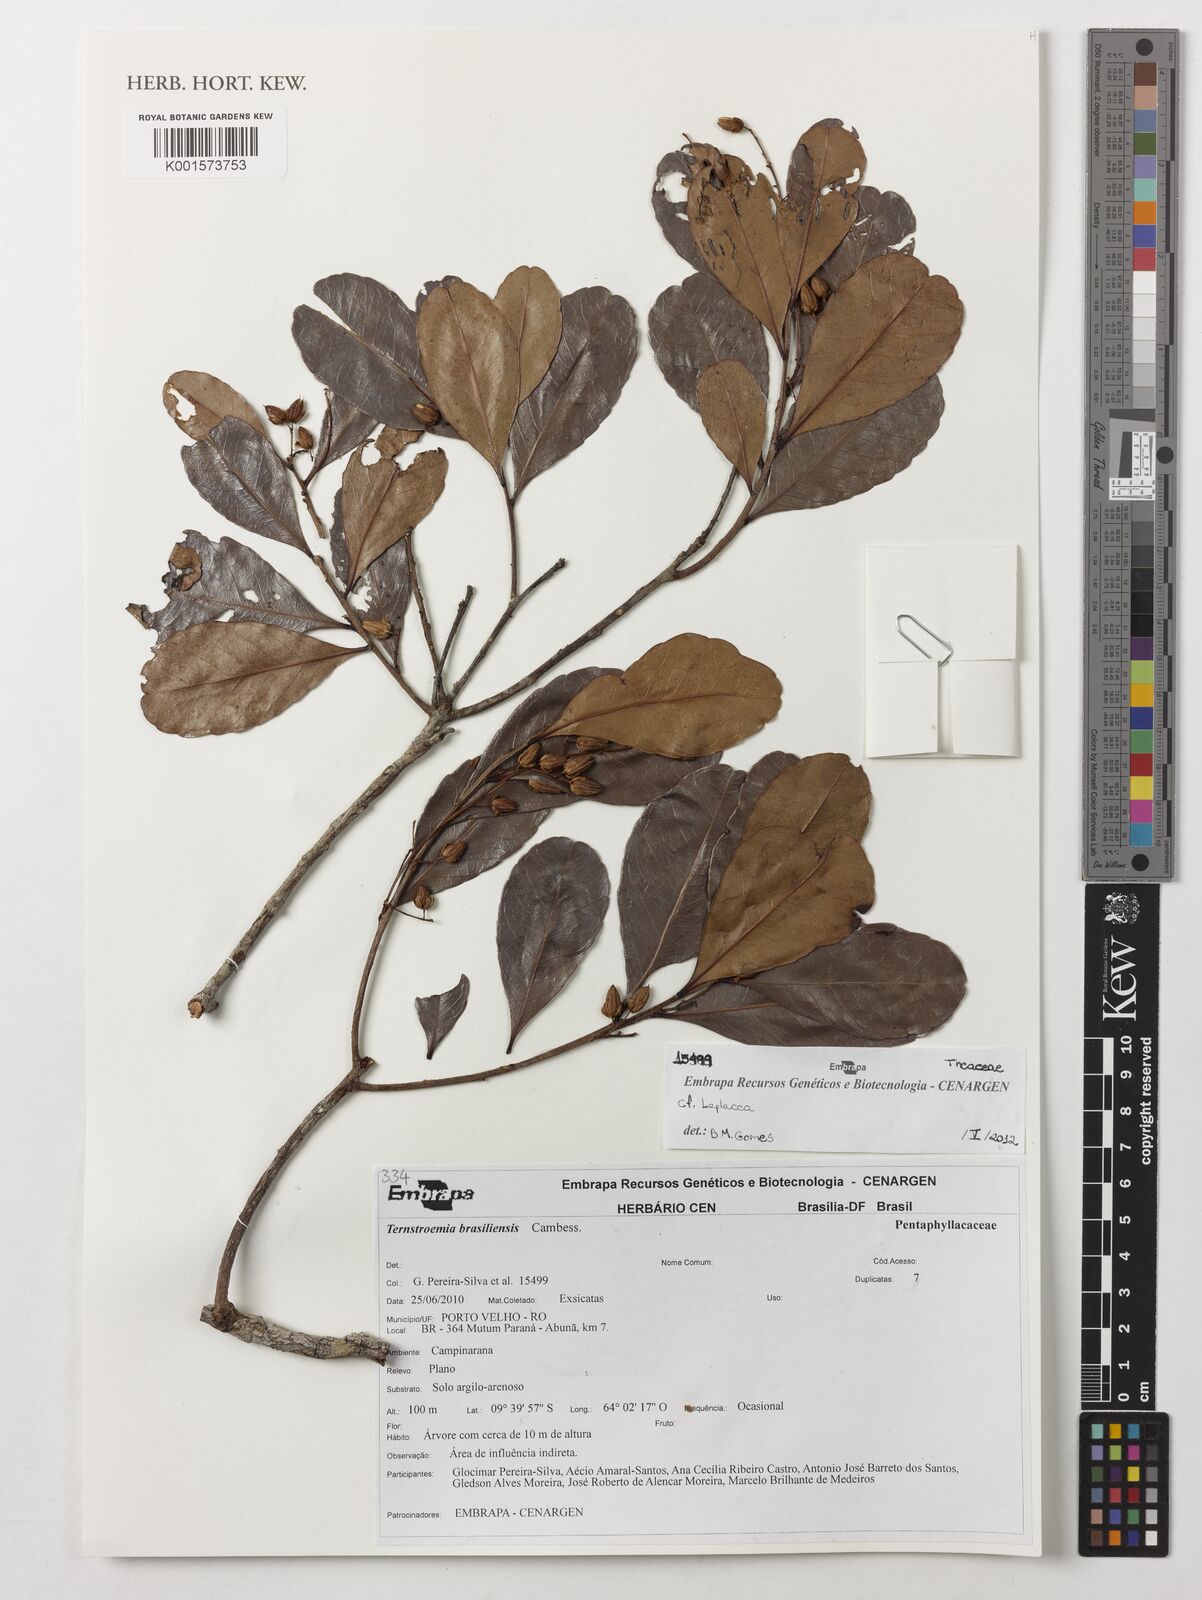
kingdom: Plantae
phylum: Tracheophyta
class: Magnoliopsida
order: Ericales
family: Theaceae
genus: Gordonia
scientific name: Gordonia
